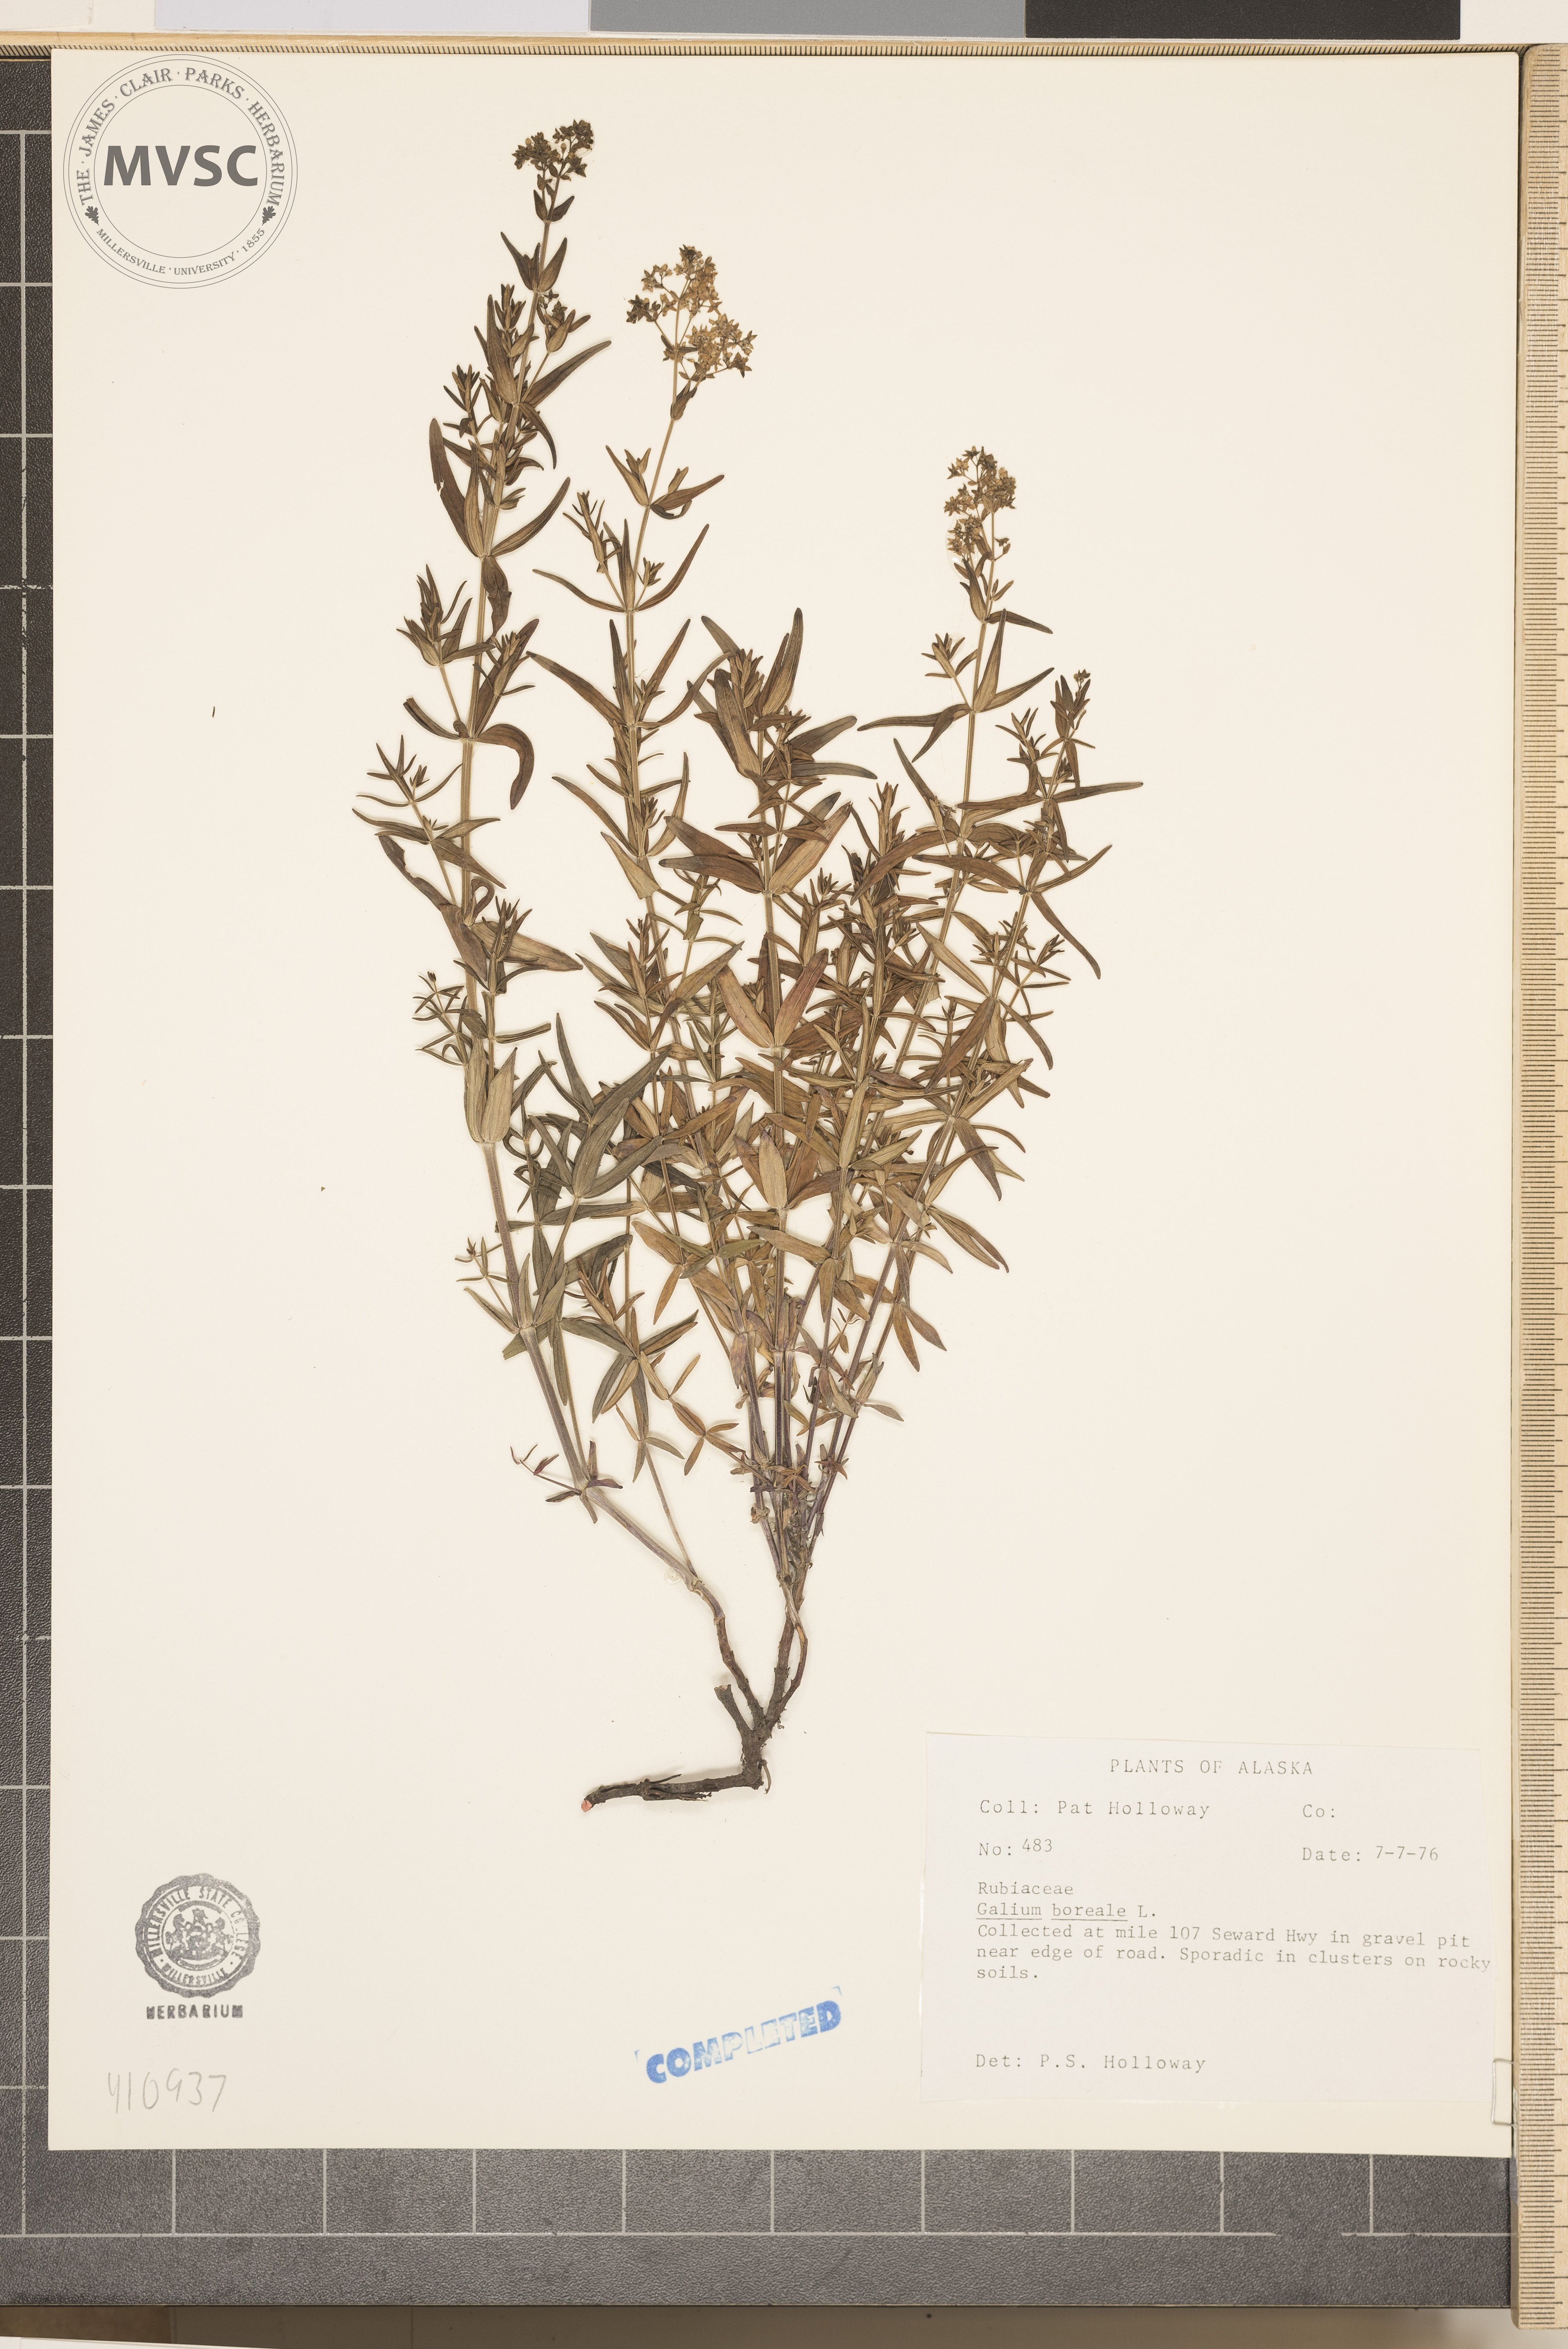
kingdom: Plantae
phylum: Tracheophyta
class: Magnoliopsida
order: Gentianales
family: Rubiaceae
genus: Galium
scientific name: Galium boreale
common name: Northern bedstraw
